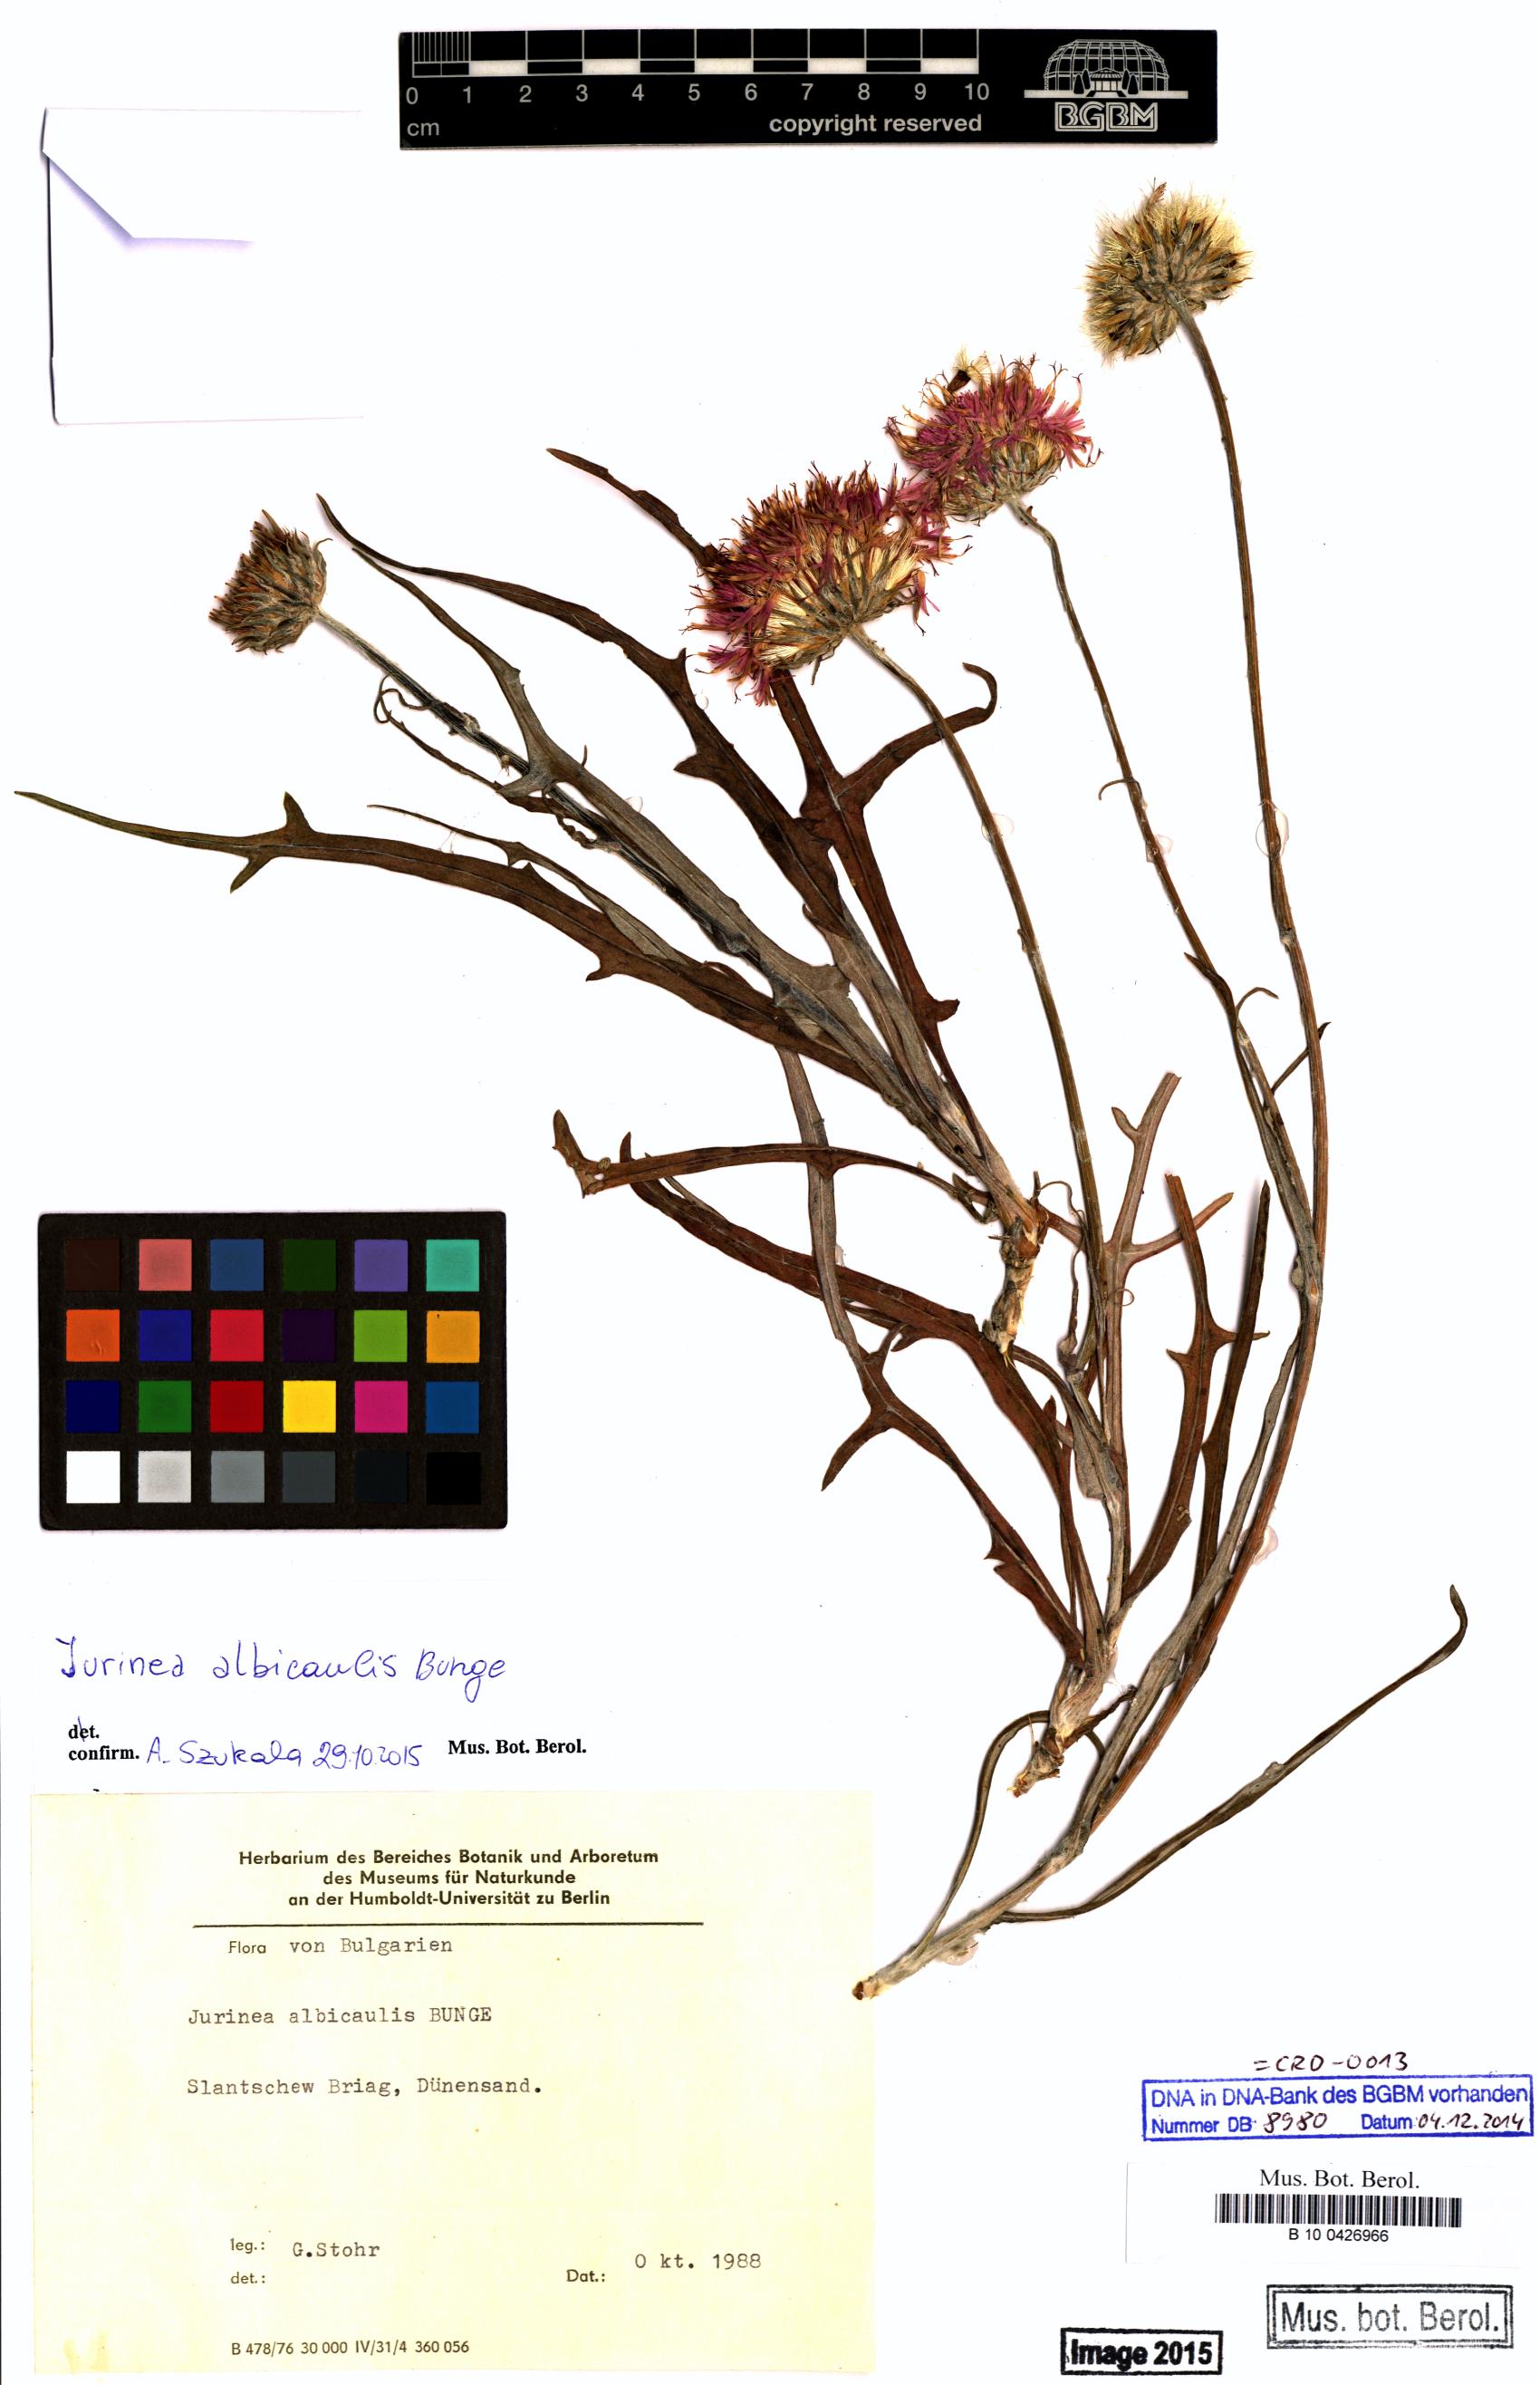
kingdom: Plantae
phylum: Tracheophyta
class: Magnoliopsida
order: Asterales
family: Asteraceae
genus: Jurinea
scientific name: Jurinea albicaulis
